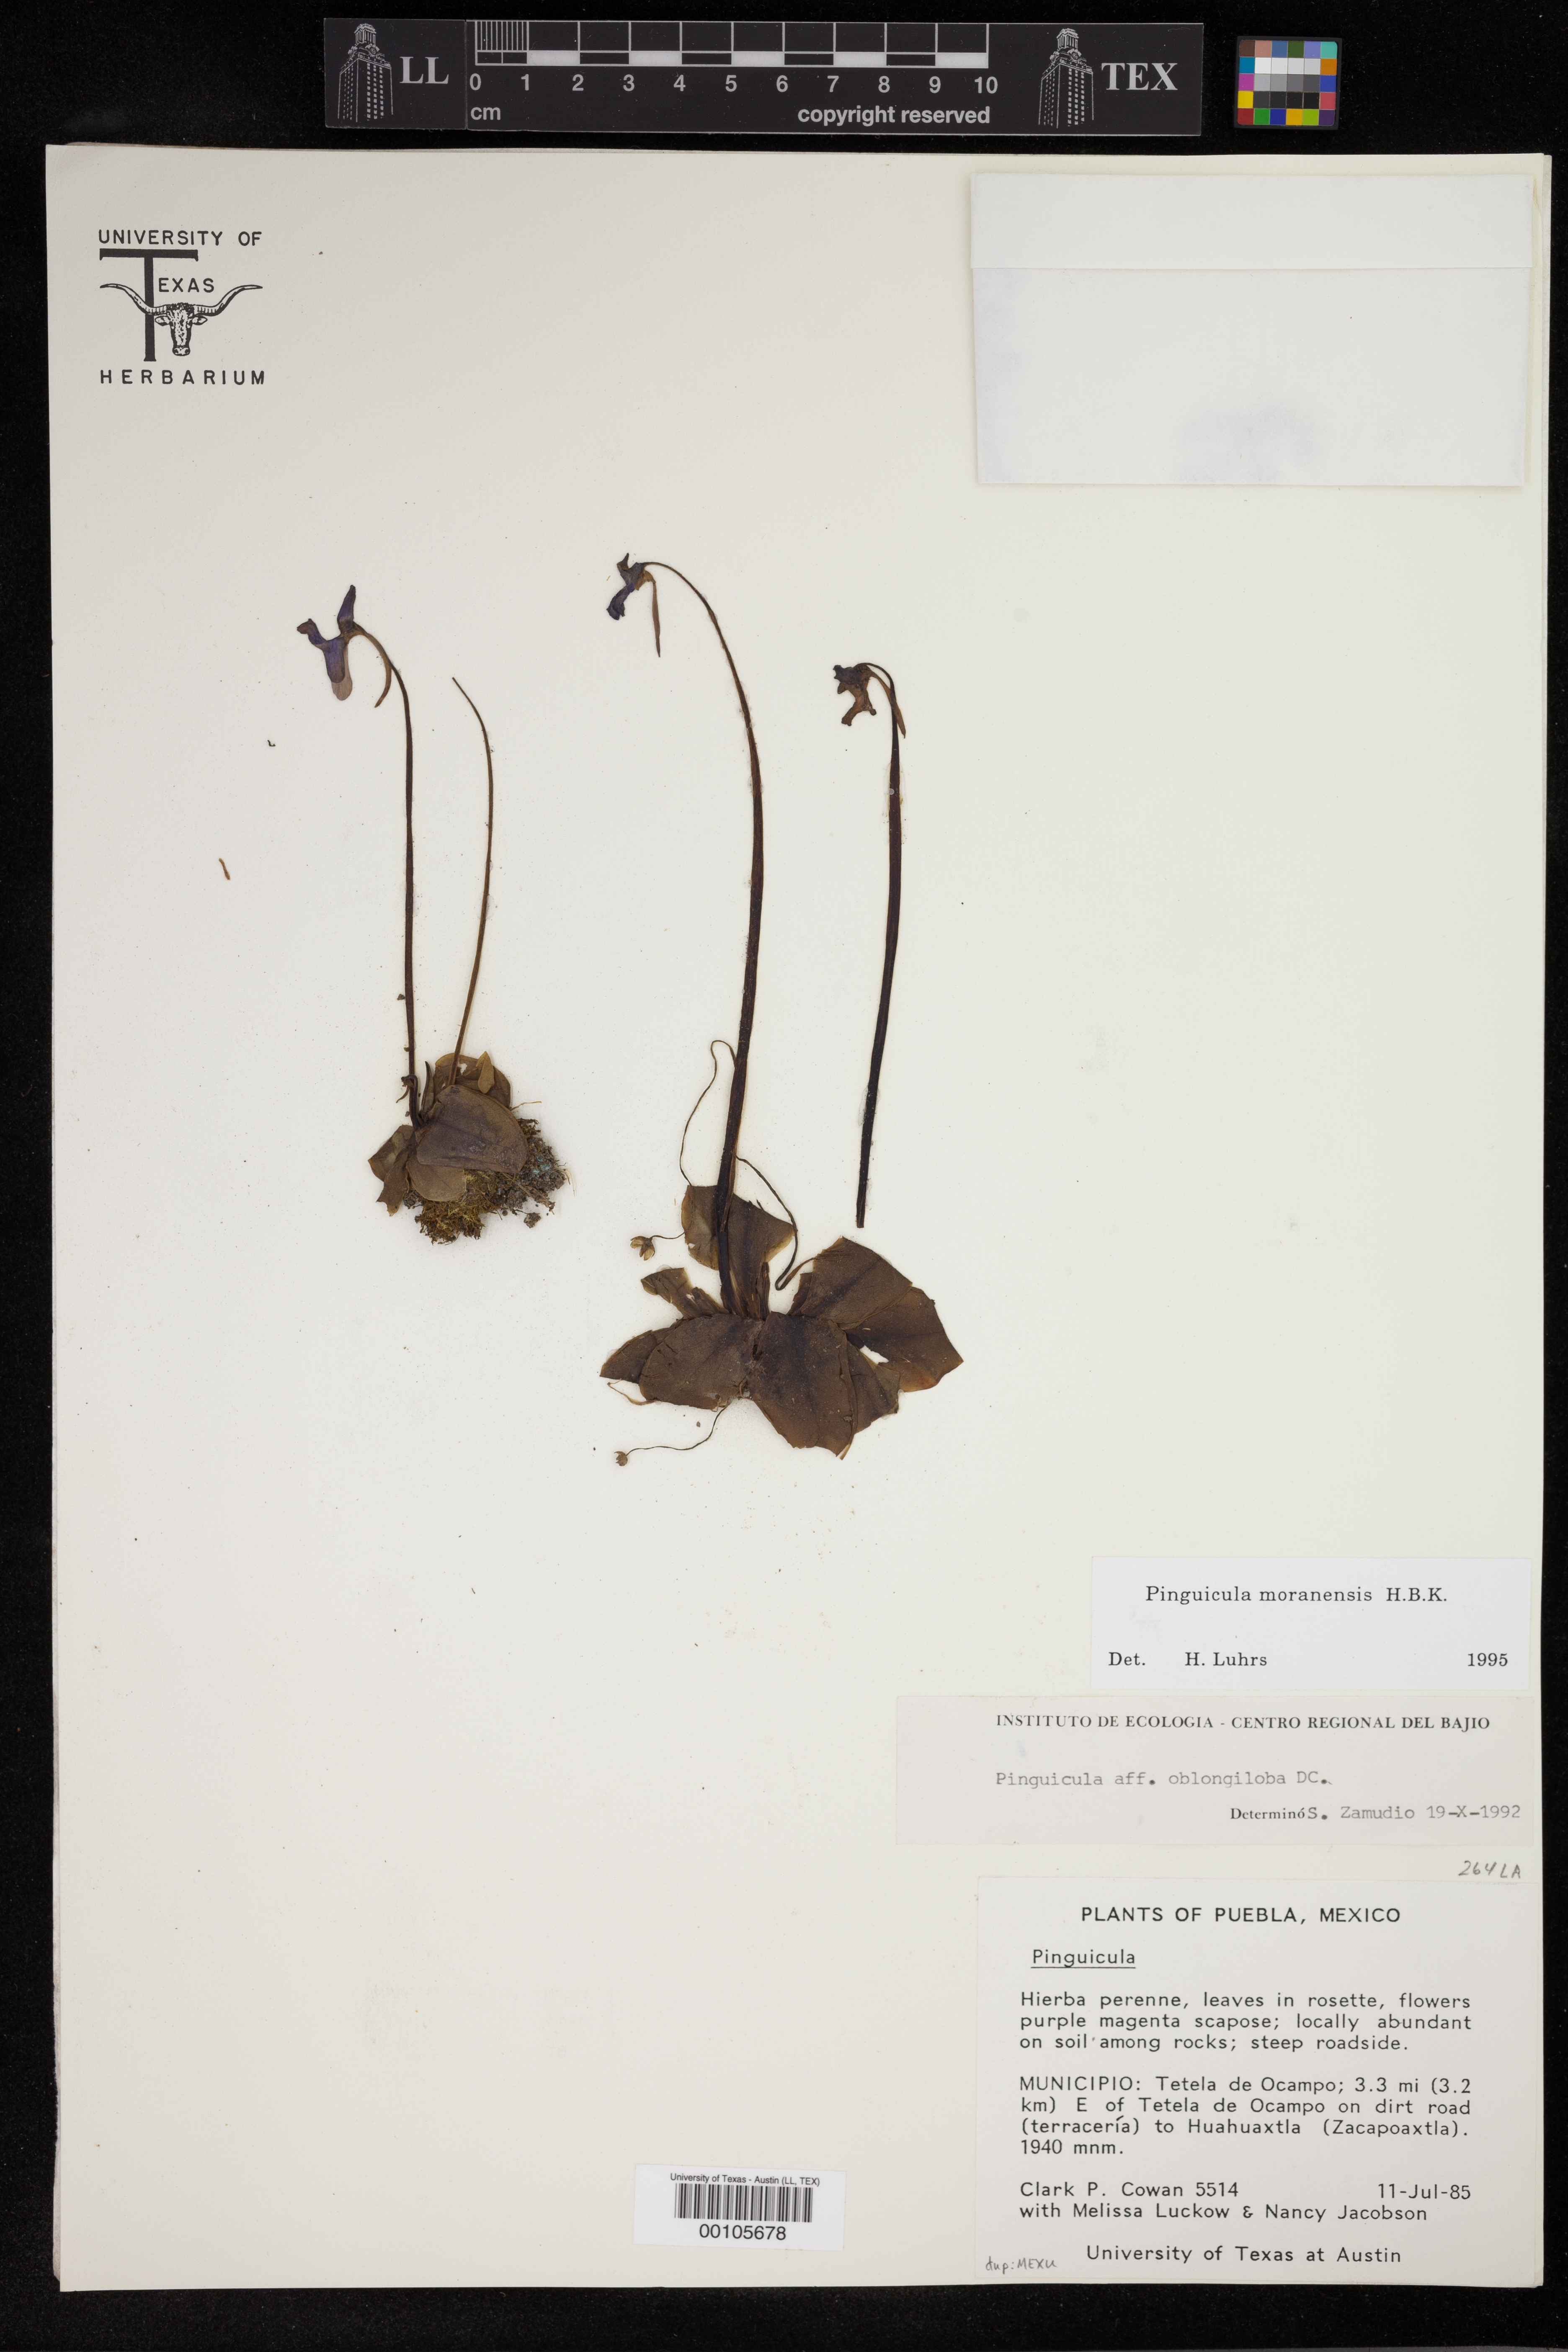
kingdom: Plantae
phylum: Tracheophyta
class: Magnoliopsida
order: Lamiales
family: Lentibulariaceae
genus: Pinguicula
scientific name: Pinguicula moranensis
